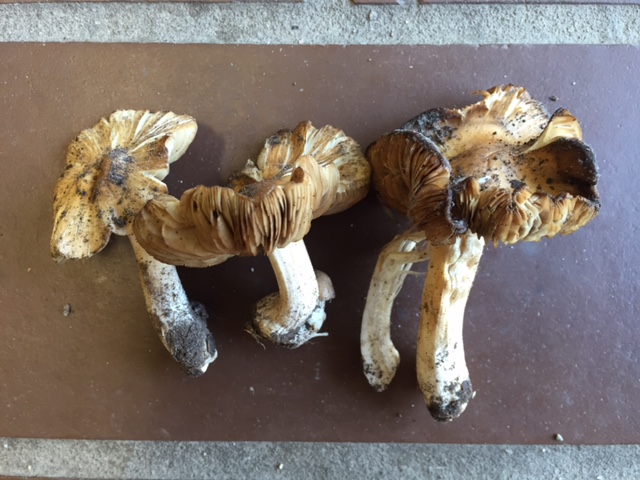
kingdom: Fungi
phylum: Basidiomycota
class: Agaricomycetes
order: Agaricales
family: Inocybaceae
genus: Inocybe
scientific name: Inocybe
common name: trævlhat
